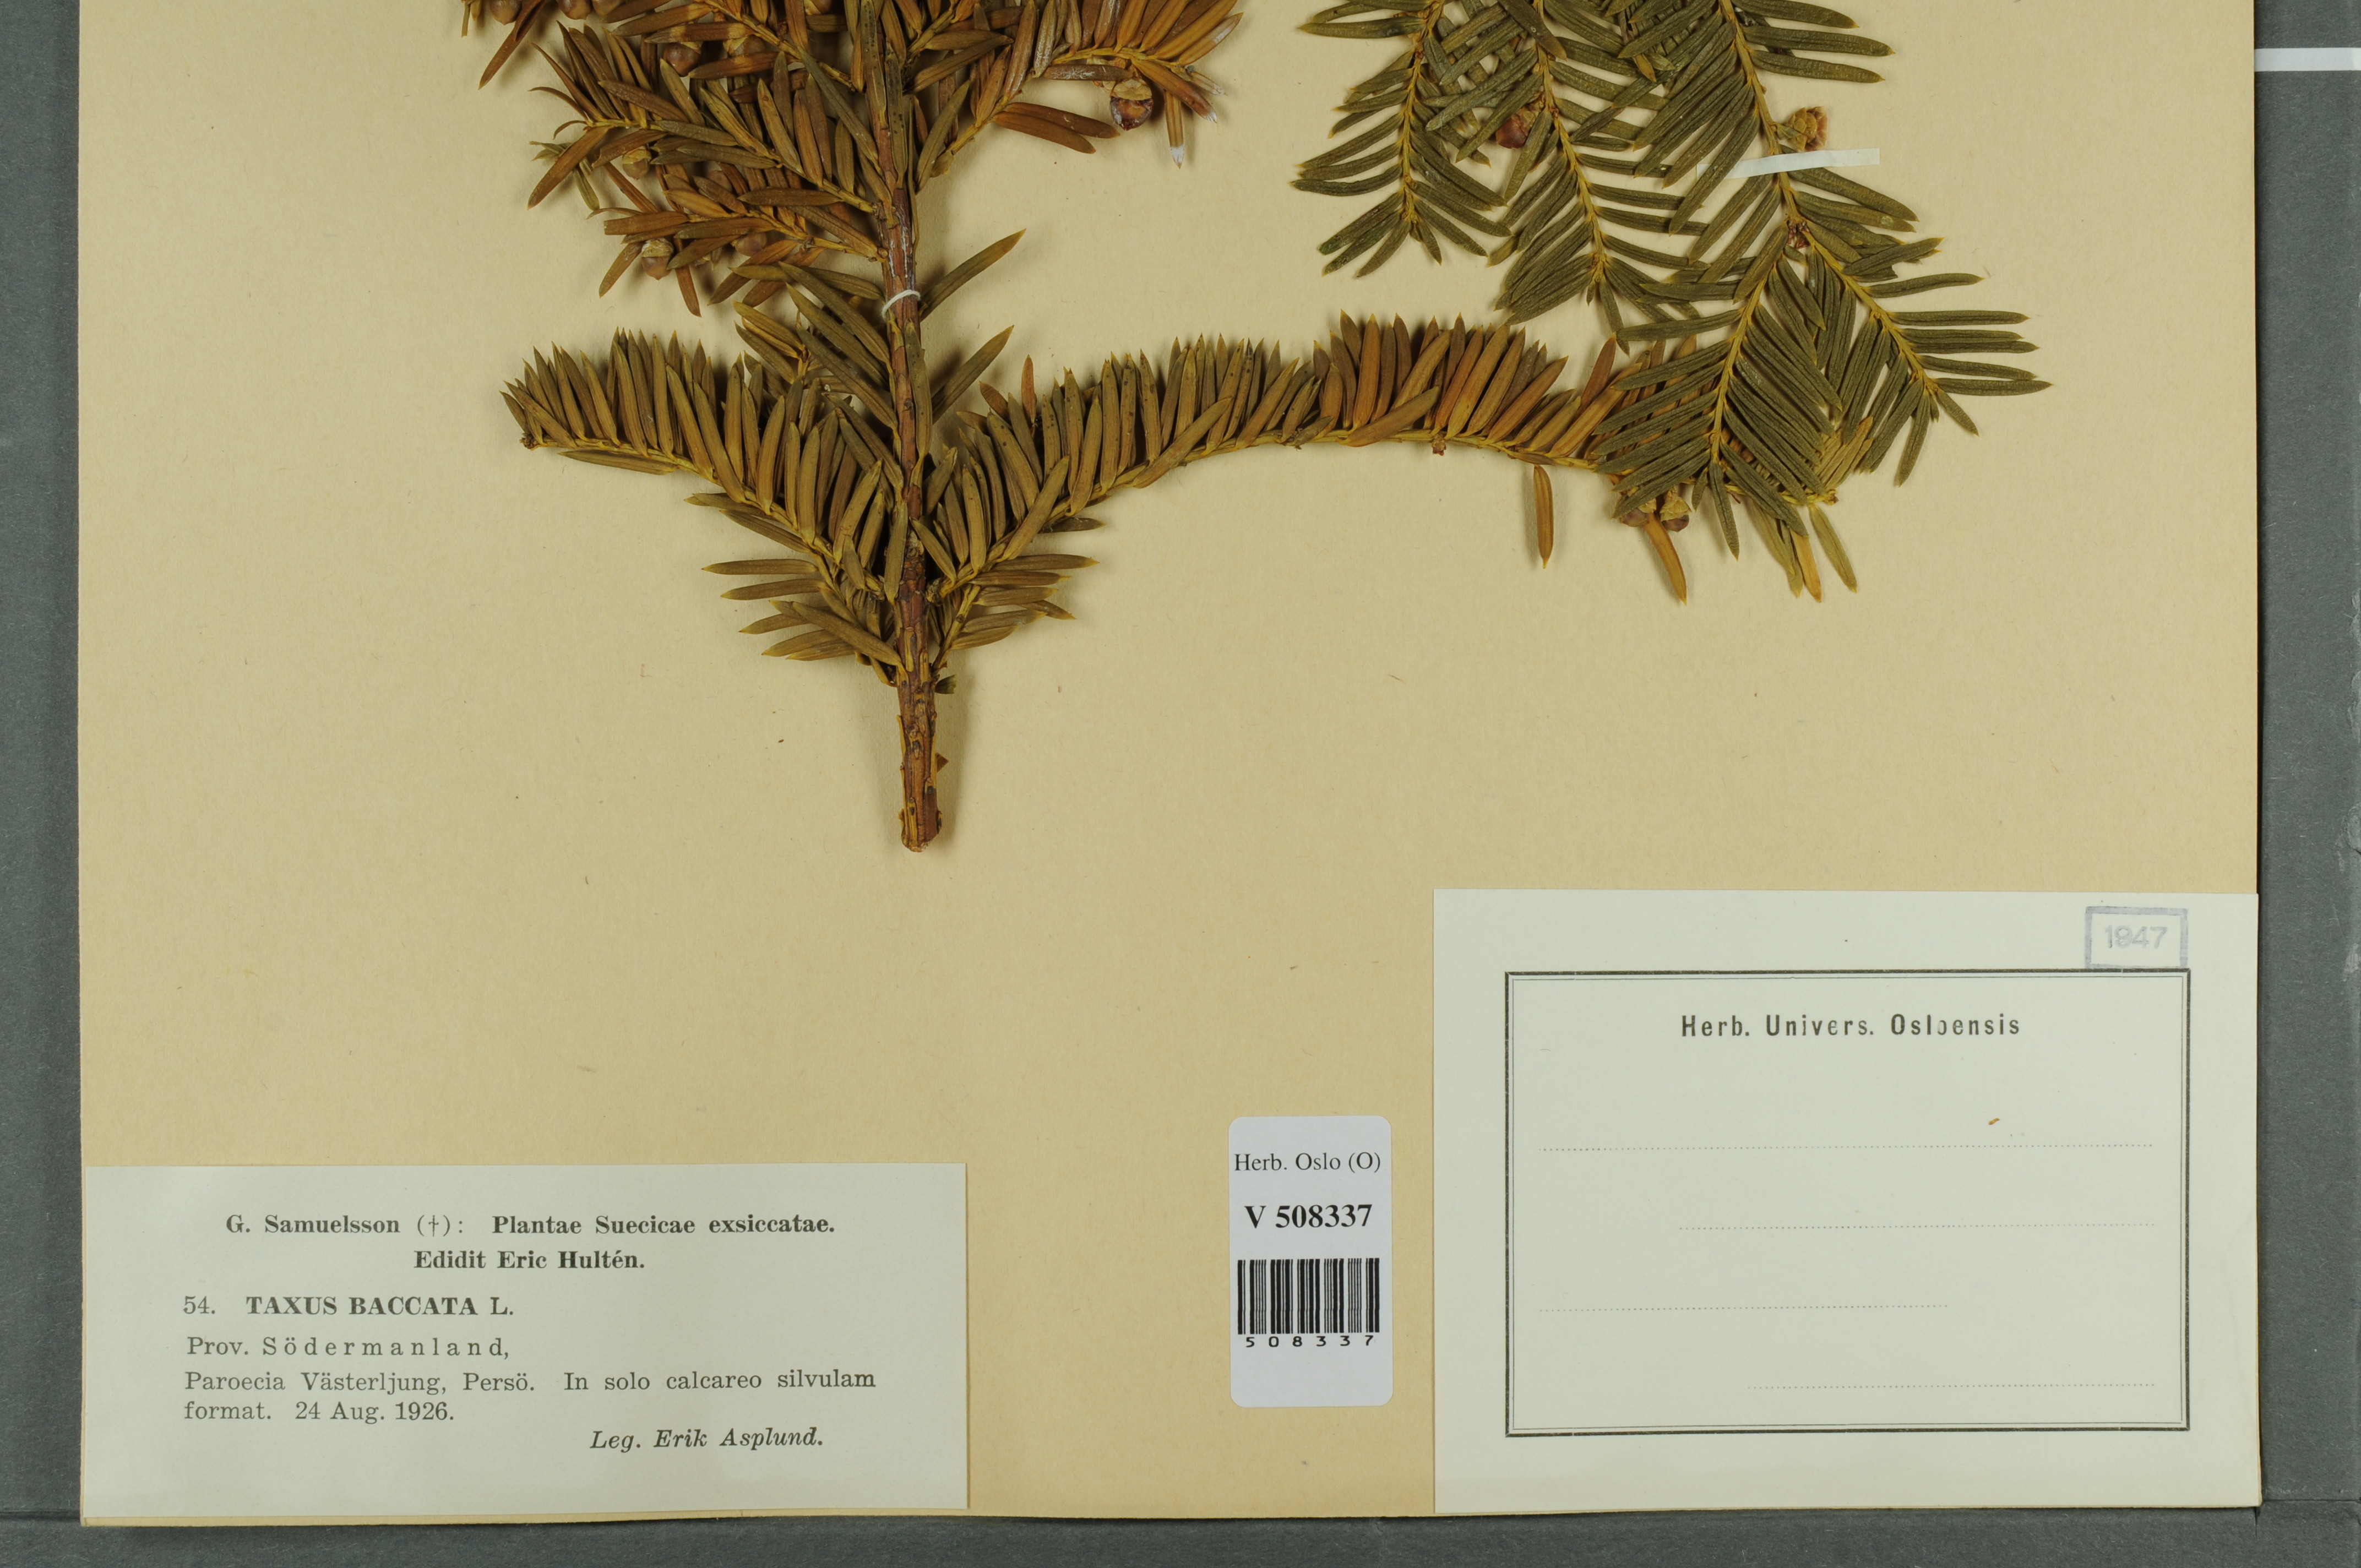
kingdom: Plantae
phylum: Tracheophyta
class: Pinopsida
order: Pinales
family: Taxaceae
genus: Taxus
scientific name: Taxus baccata
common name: Yew
